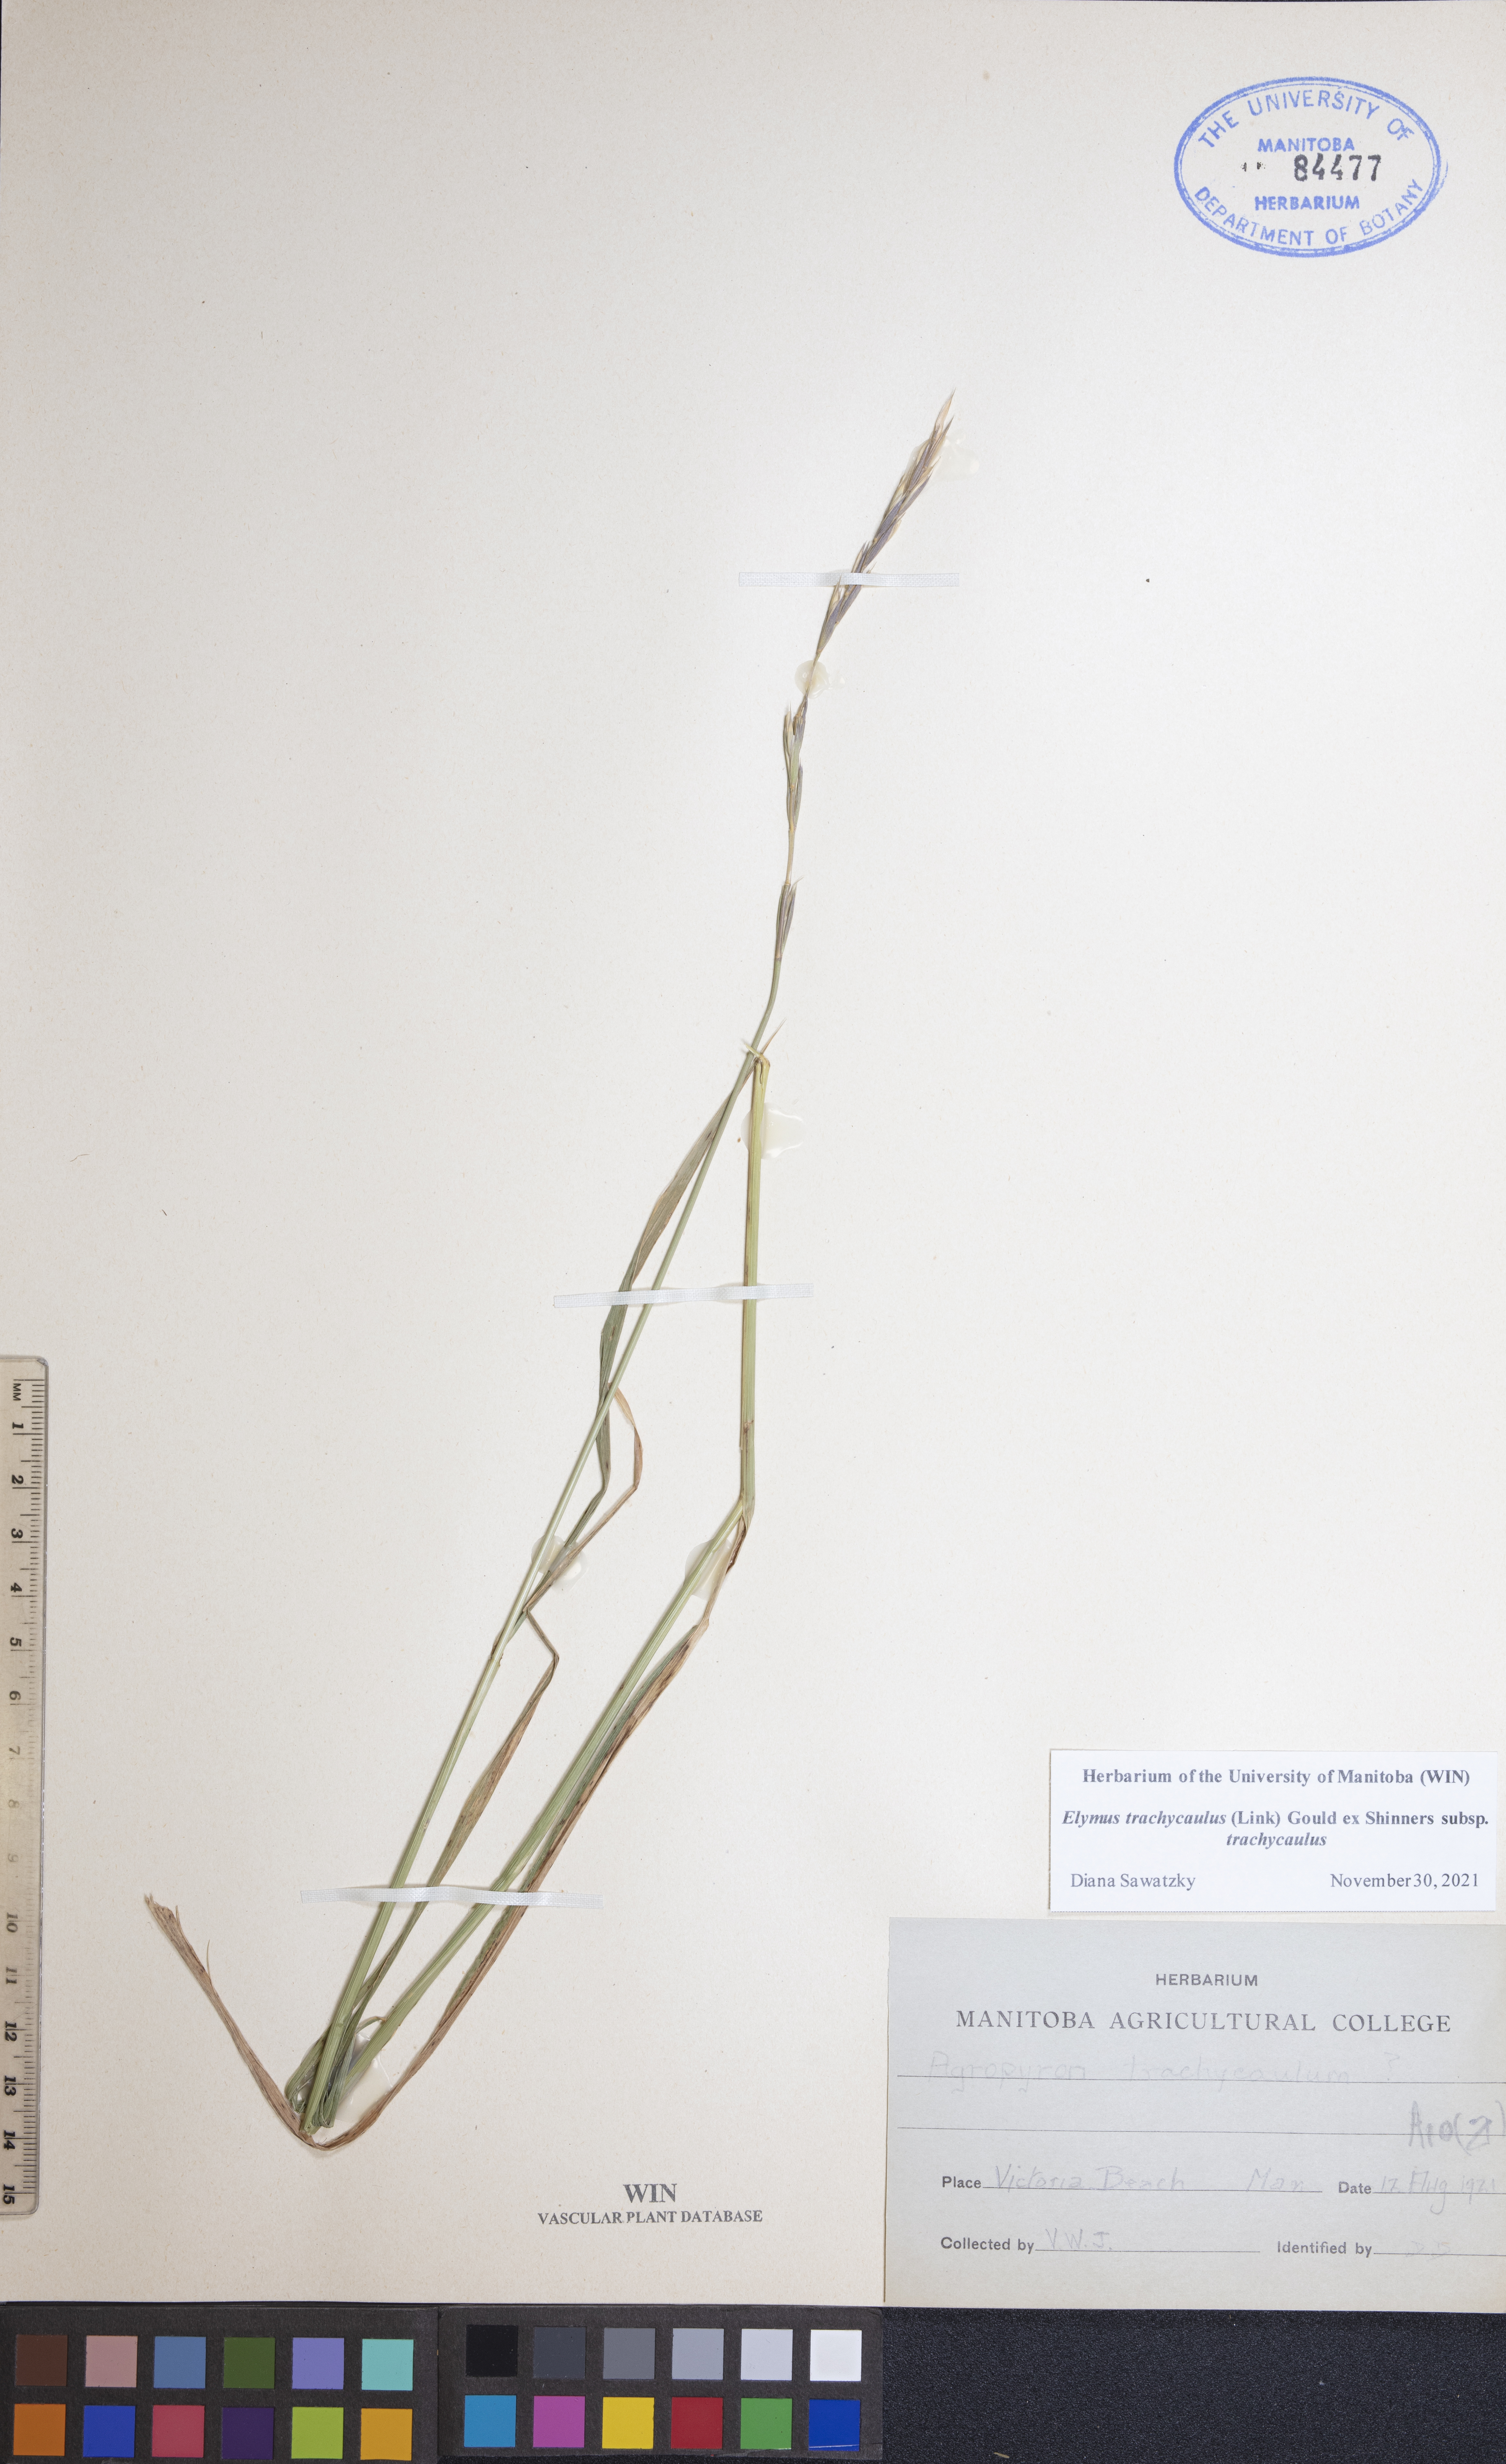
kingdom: Plantae
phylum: Tracheophyta
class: Liliopsida
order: Poales
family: Poaceae
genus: Elymus
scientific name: Elymus violaceus
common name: Arctic wheatgrass
